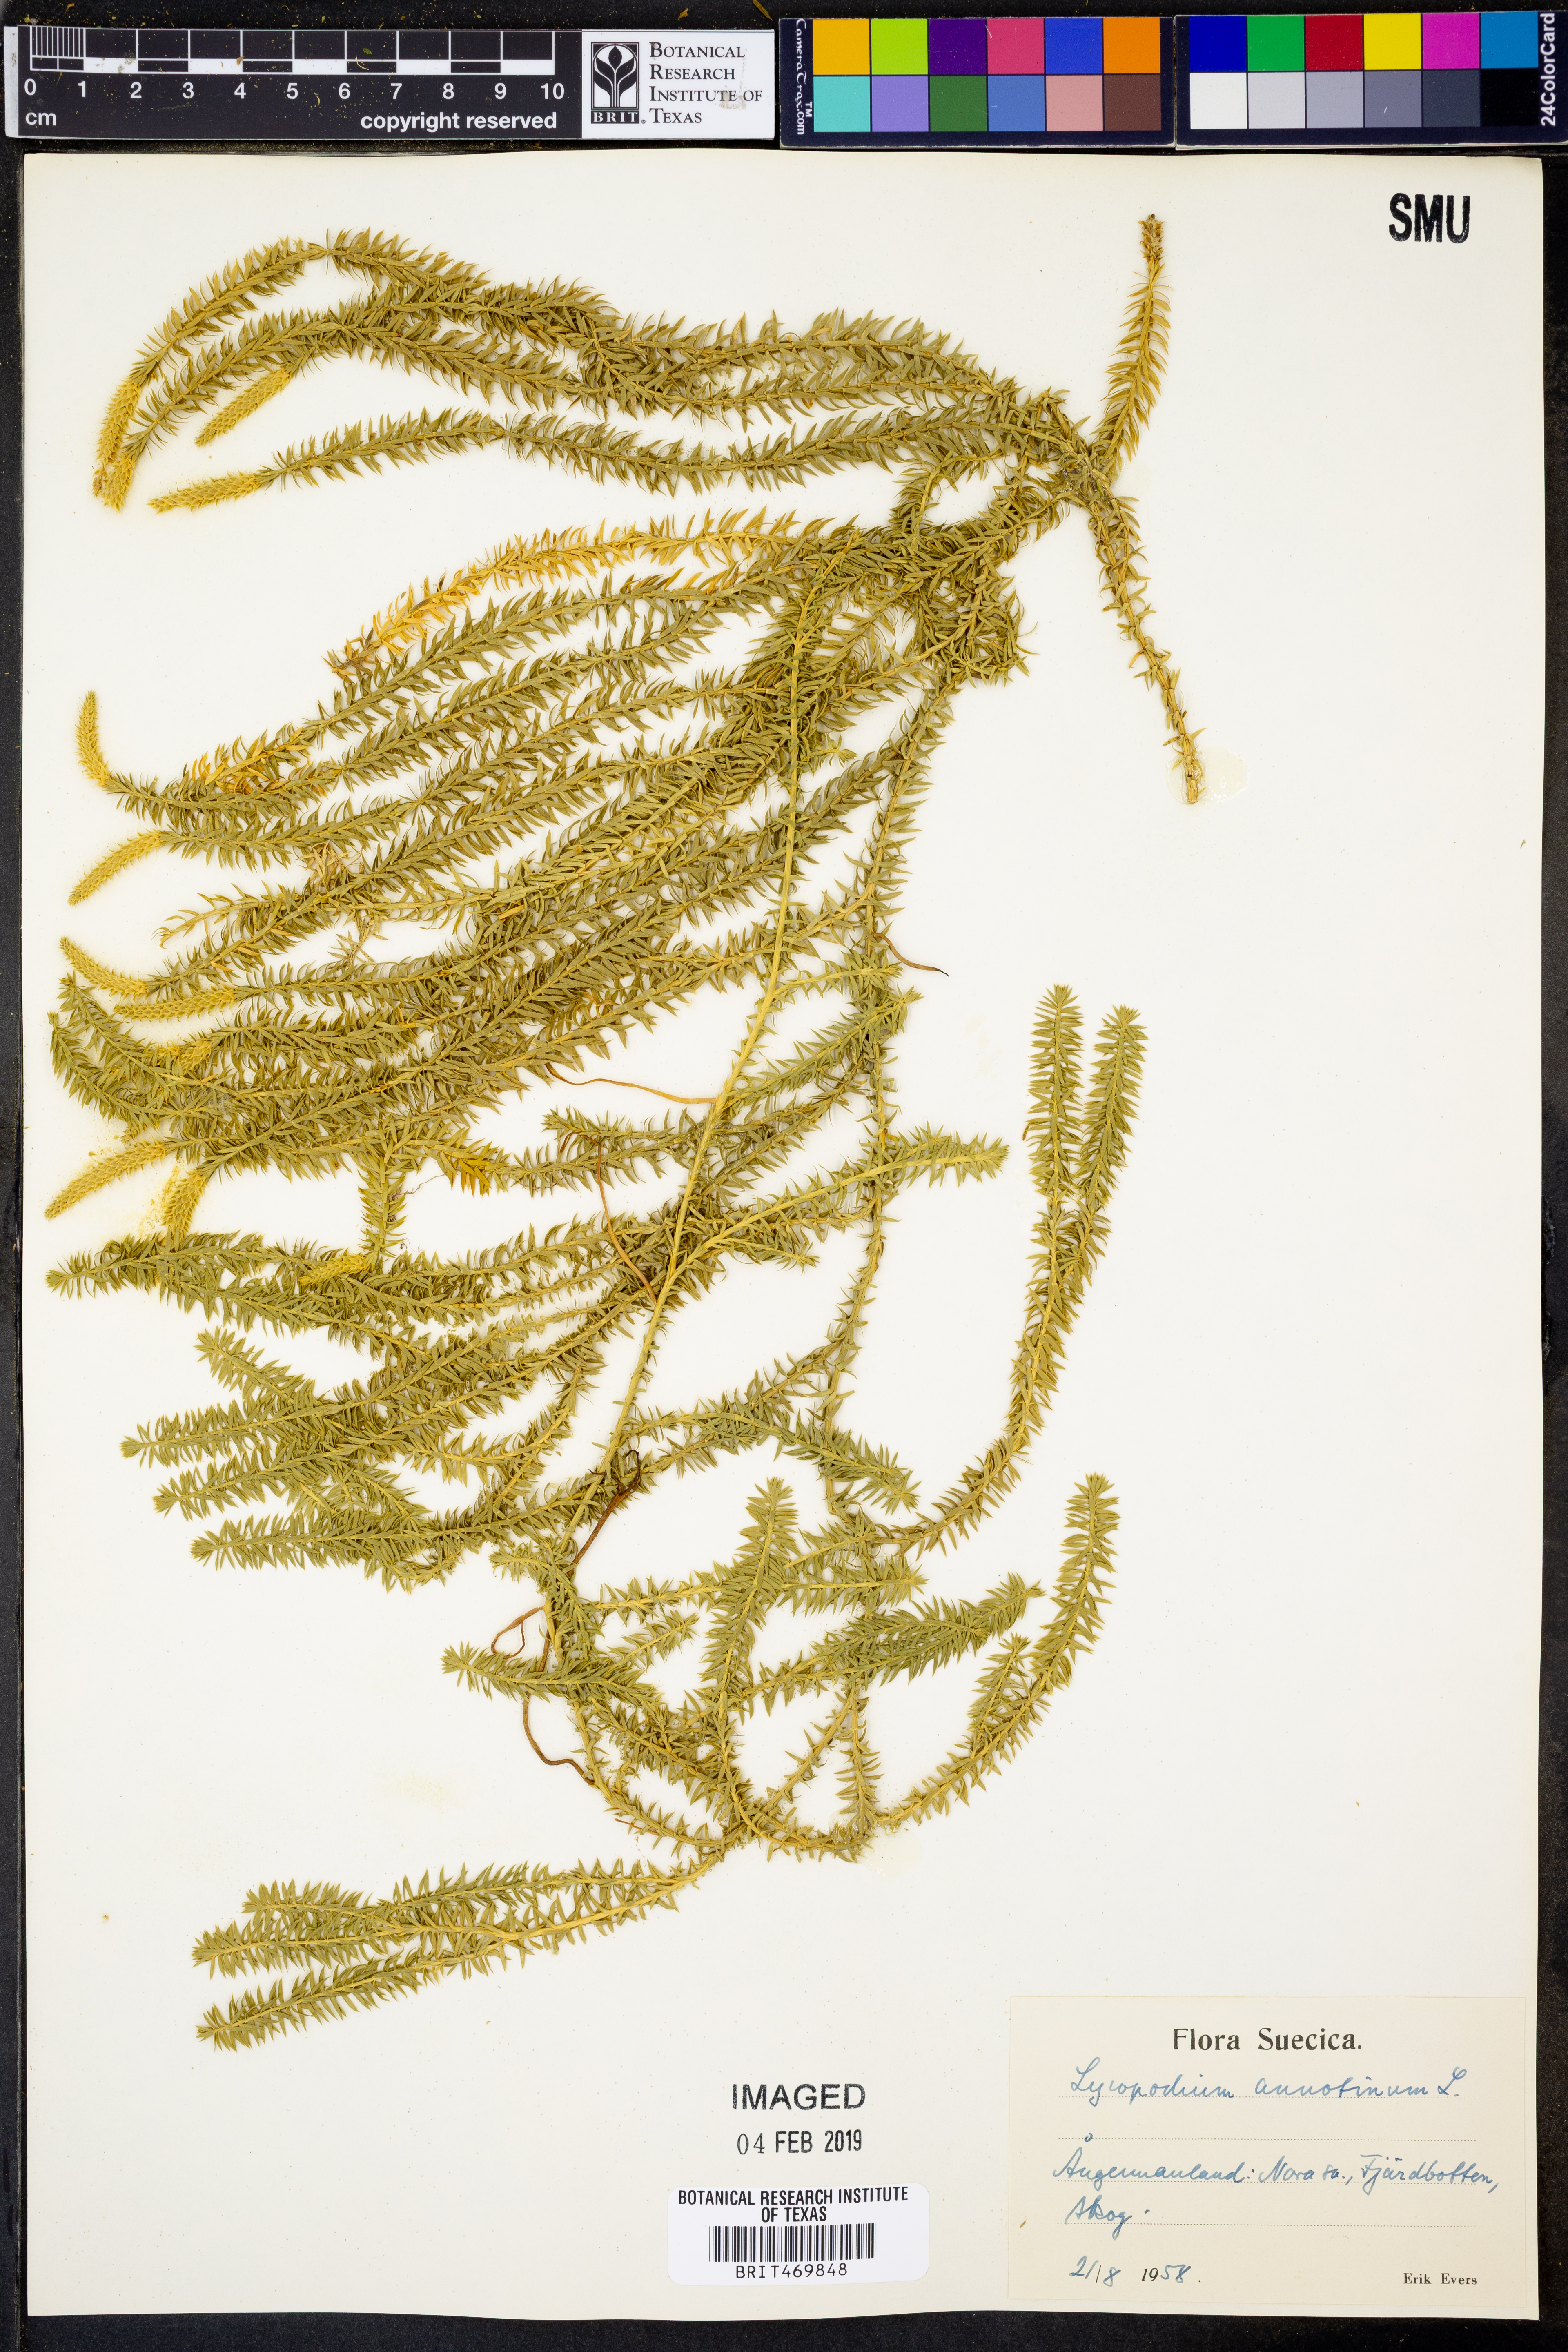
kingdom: Plantae
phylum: Tracheophyta
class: Lycopodiopsida
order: Lycopodiales
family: Lycopodiaceae
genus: Spinulum
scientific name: Spinulum annotinum
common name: Interrupted club-moss
